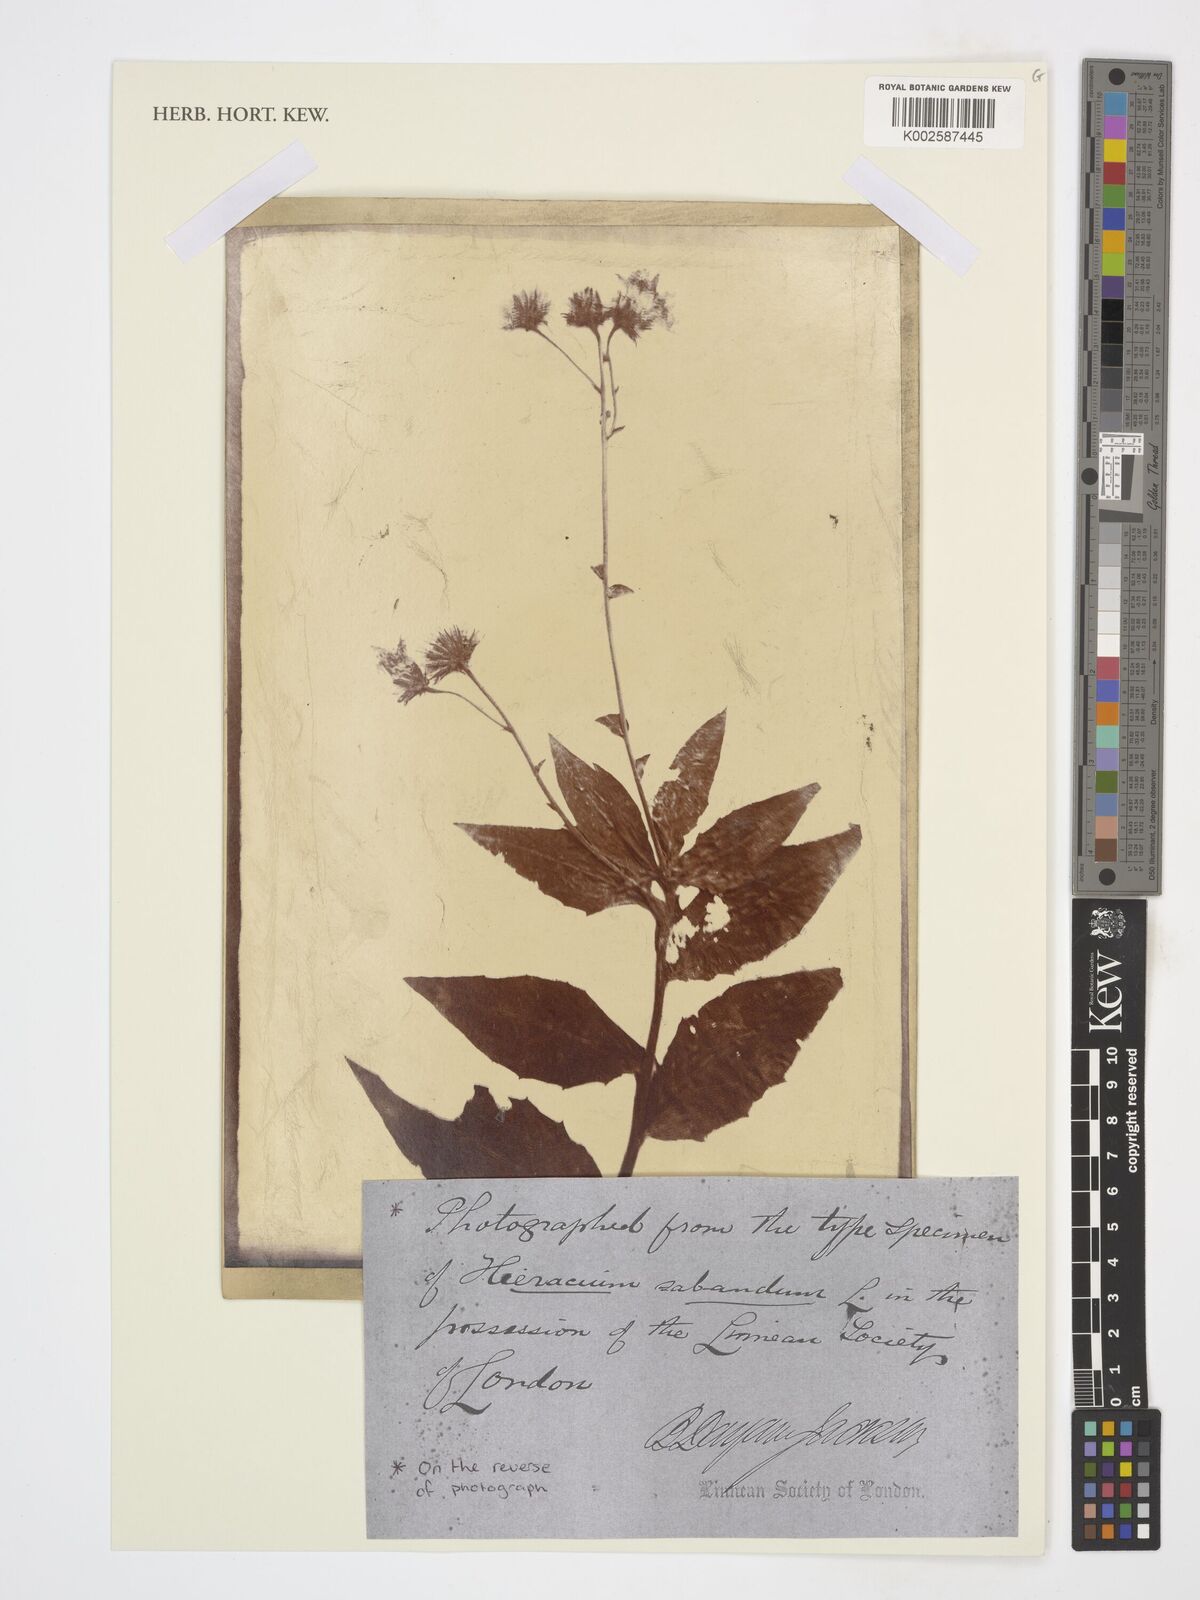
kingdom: Plantae
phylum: Tracheophyta
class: Magnoliopsida
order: Asterales
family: Asteraceae
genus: Hieracium
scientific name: Hieracium sabaudum
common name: New england hawkweed
